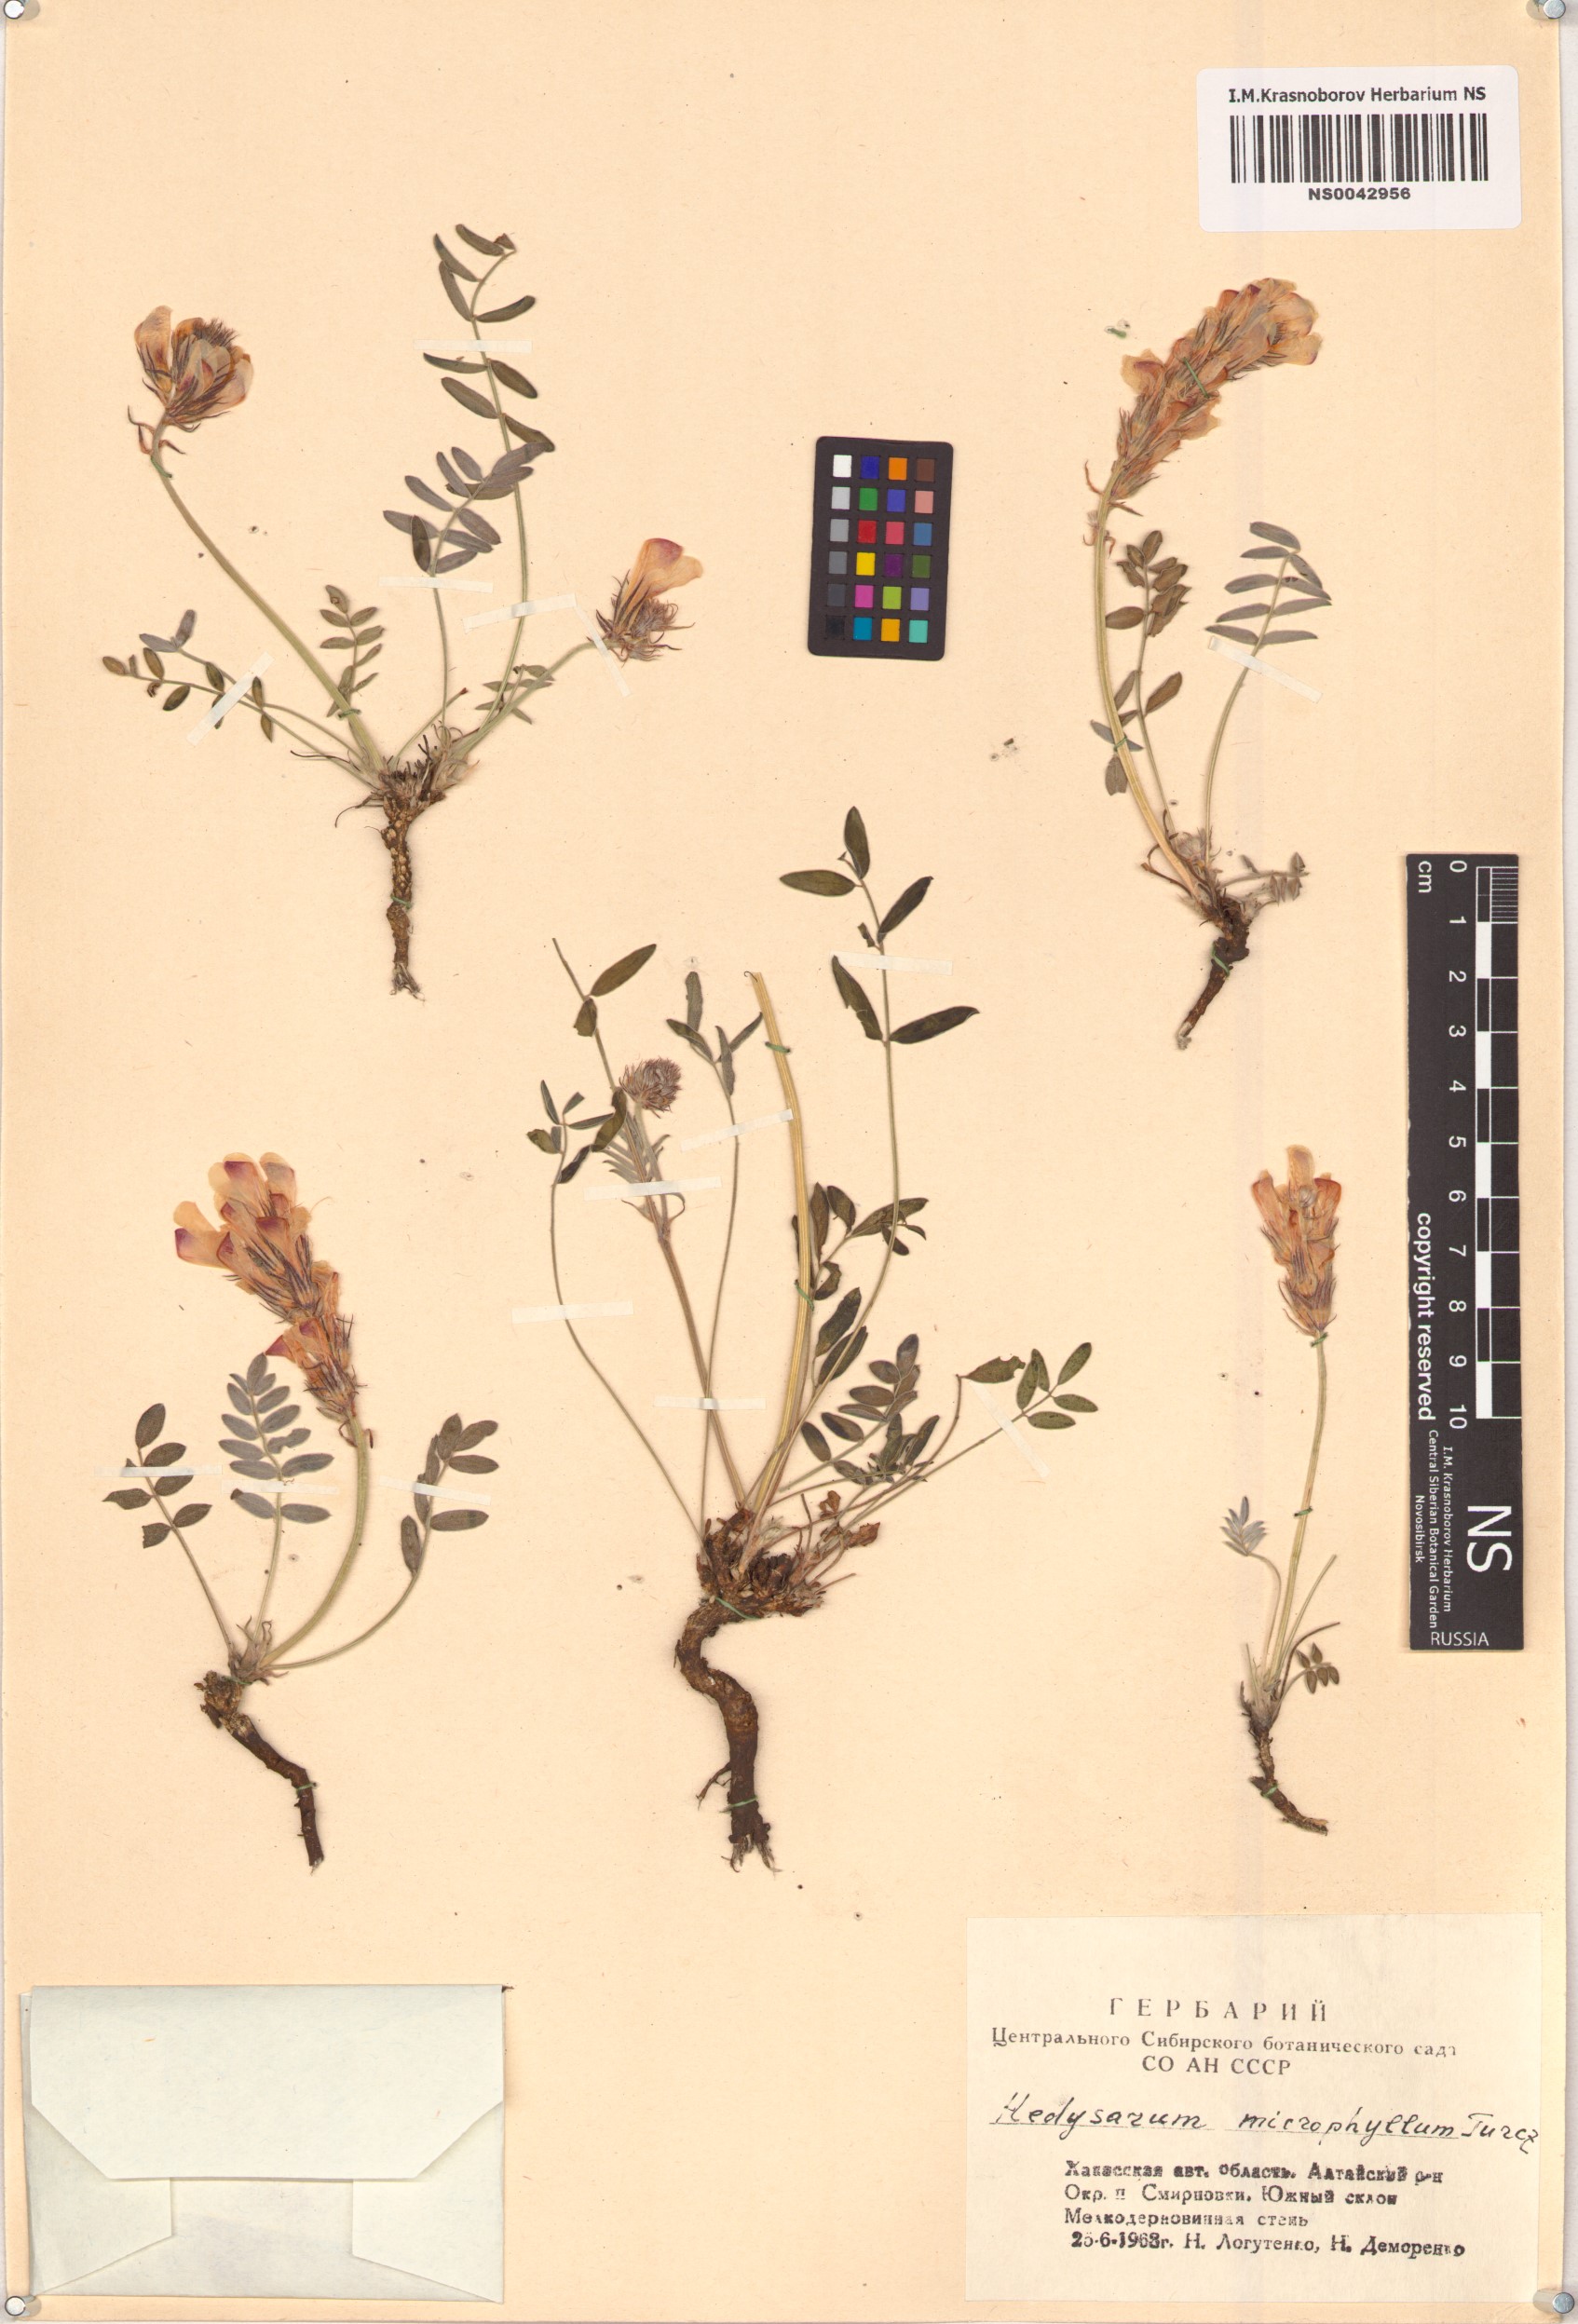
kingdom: Plantae
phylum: Tracheophyta
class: Magnoliopsida
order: Fabales
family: Fabaceae
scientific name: Fabaceae
